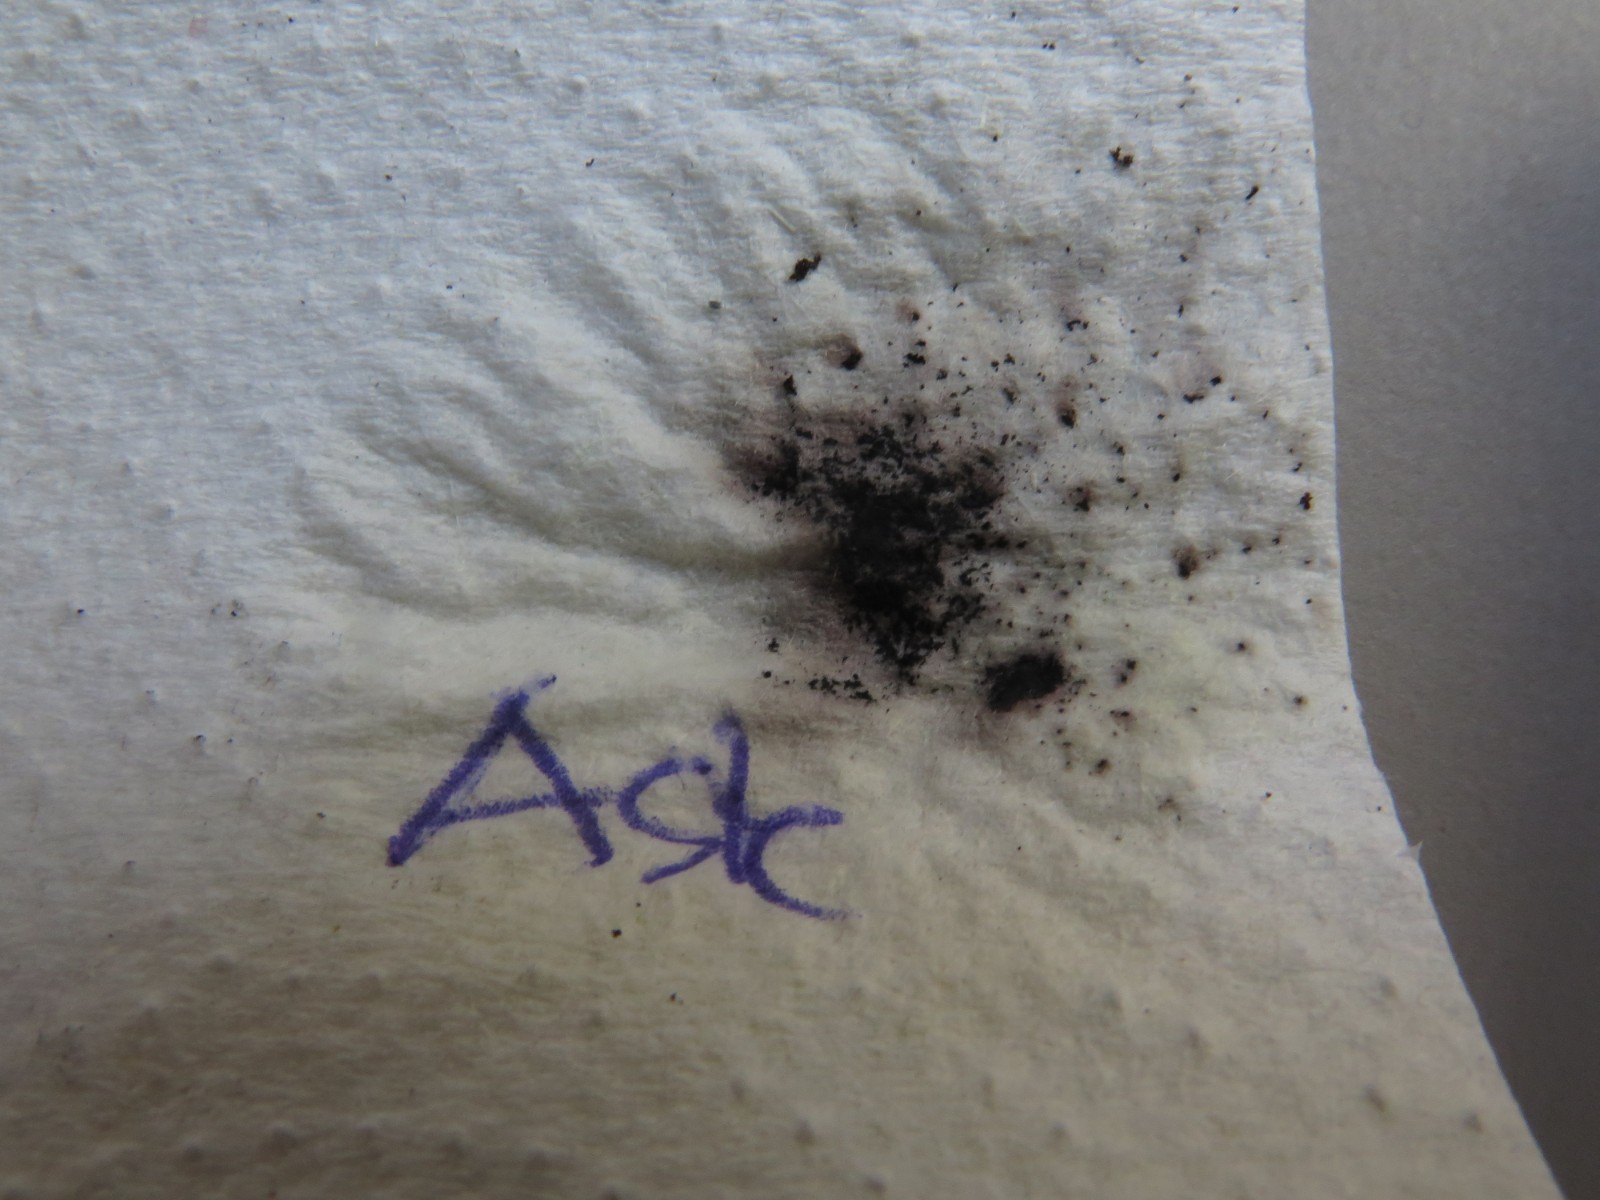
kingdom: Fungi
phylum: Ascomycota
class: Sordariomycetes
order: Xylariales
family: Hypoxylaceae
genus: Daldinia
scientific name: Daldinia concentrica
